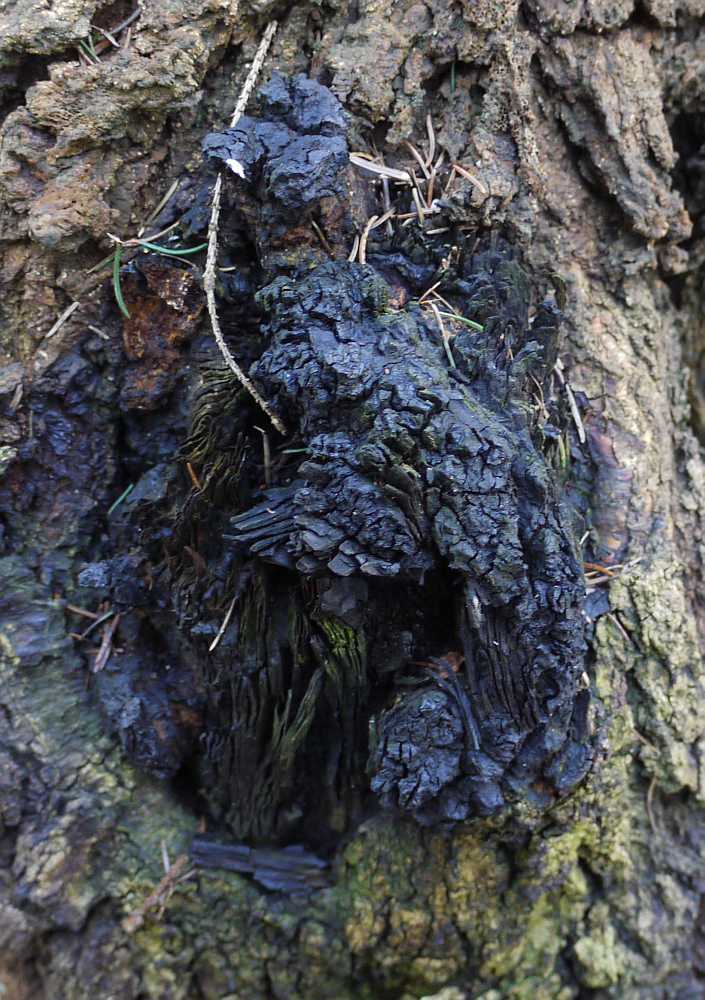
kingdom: Fungi
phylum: Basidiomycota
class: Agaricomycetes
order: Hymenochaetales
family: Hymenochaetaceae
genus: Inonotus
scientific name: Inonotus obliquus
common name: birke-spejlporesvamp
